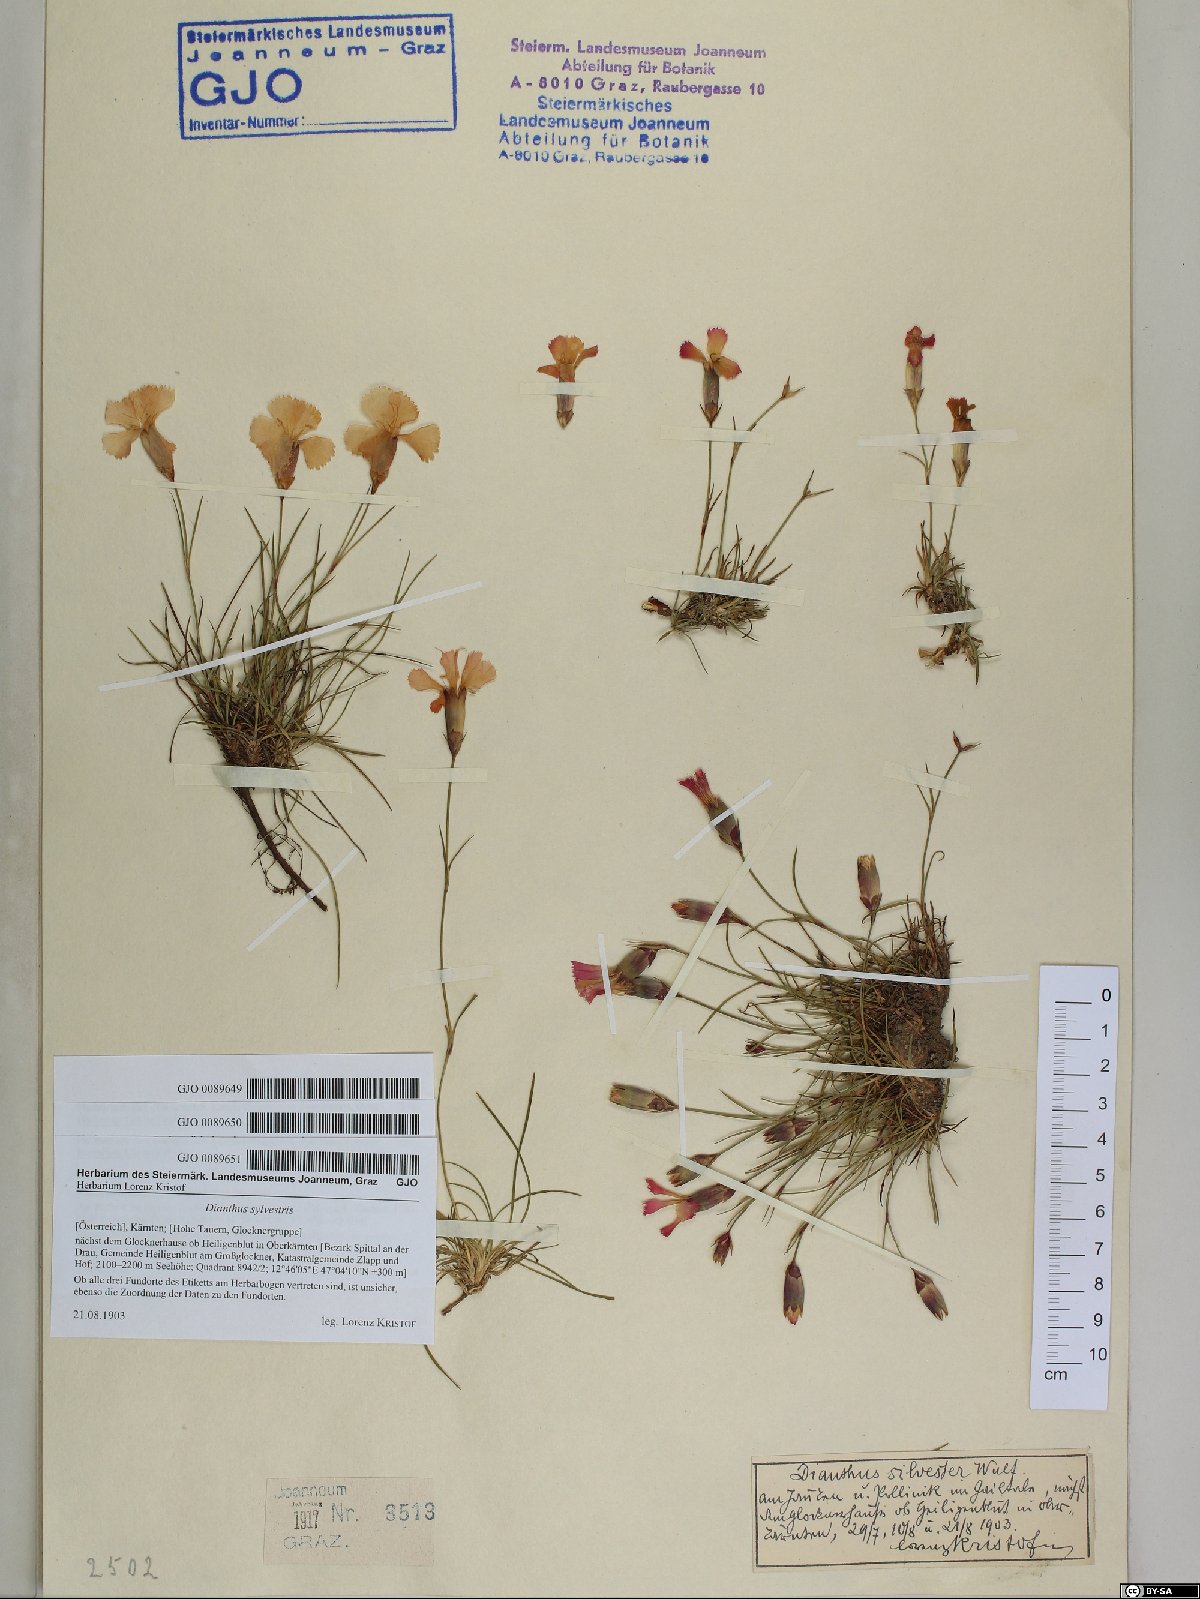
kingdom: Plantae
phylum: Tracheophyta
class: Magnoliopsida
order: Caryophyllales
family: Caryophyllaceae
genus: Dianthus
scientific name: Dianthus sylvestris
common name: Wood pink
